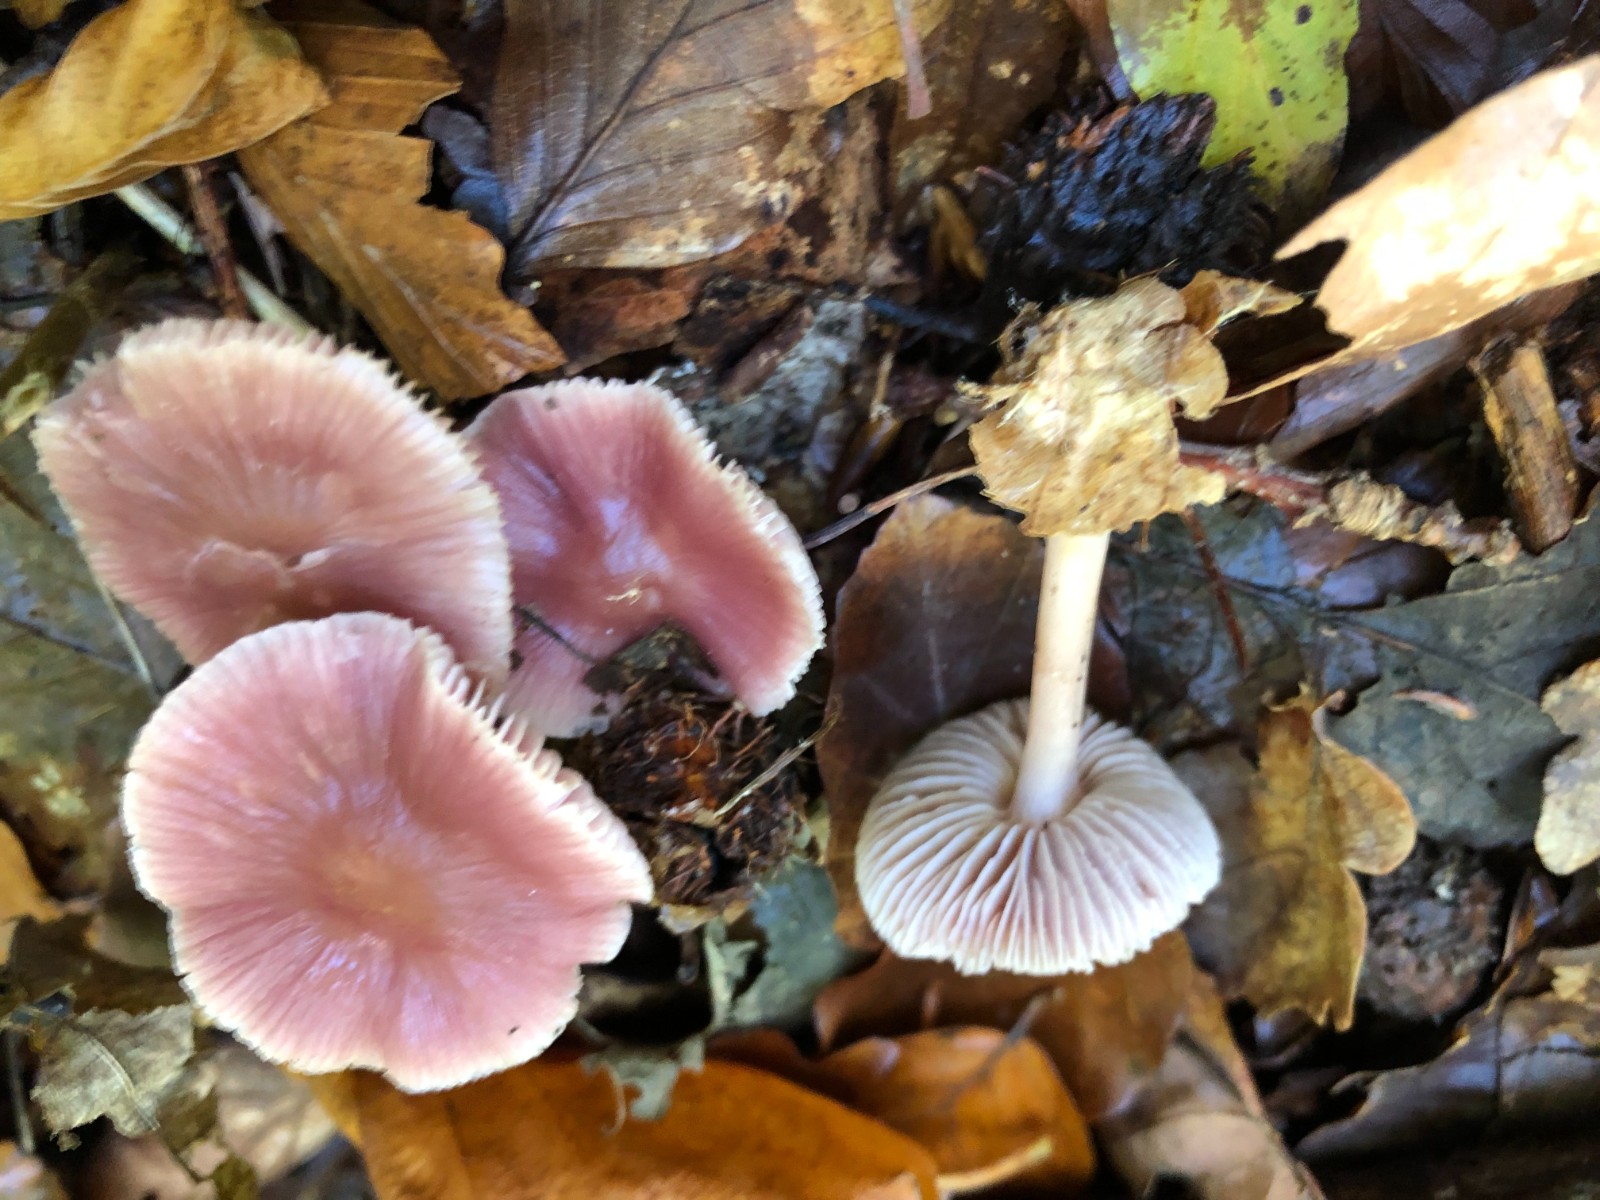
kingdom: Fungi
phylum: Basidiomycota
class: Agaricomycetes
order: Agaricales
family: Mycenaceae
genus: Mycena
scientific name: Mycena rosea
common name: rosa huesvamp
